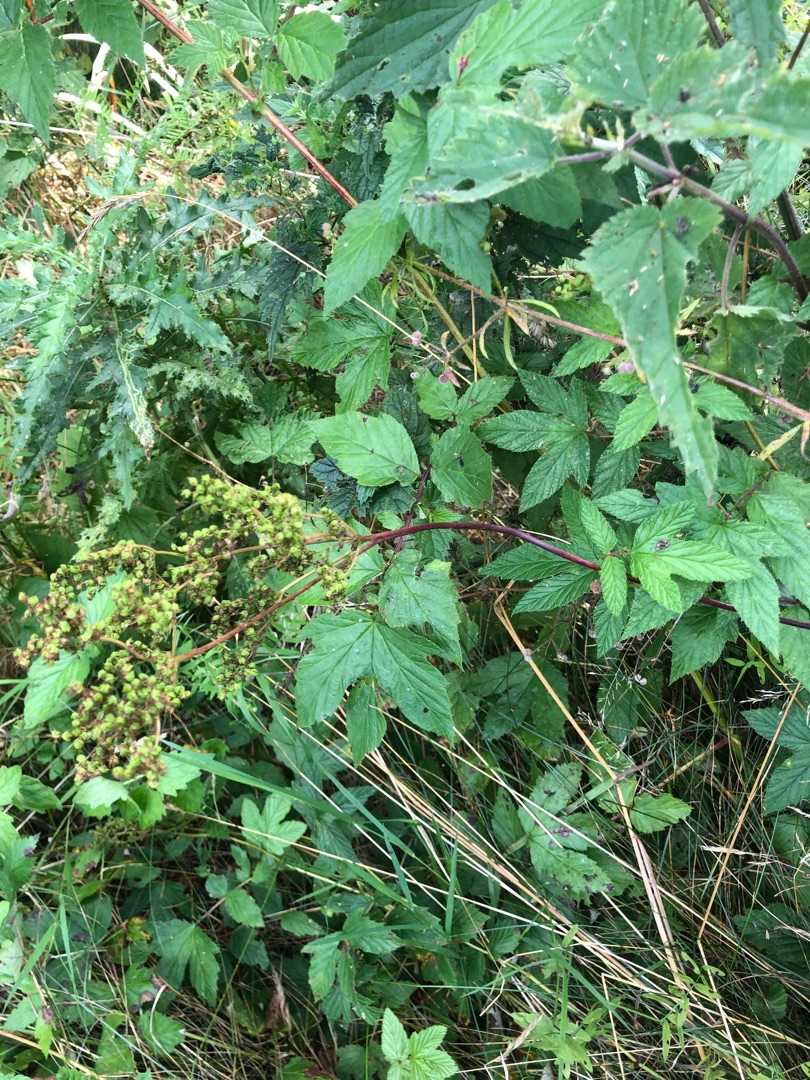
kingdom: Plantae
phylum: Tracheophyta
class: Magnoliopsida
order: Rosales
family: Rosaceae
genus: Filipendula
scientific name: Filipendula ulmaria
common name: Almindelig mjødurt
